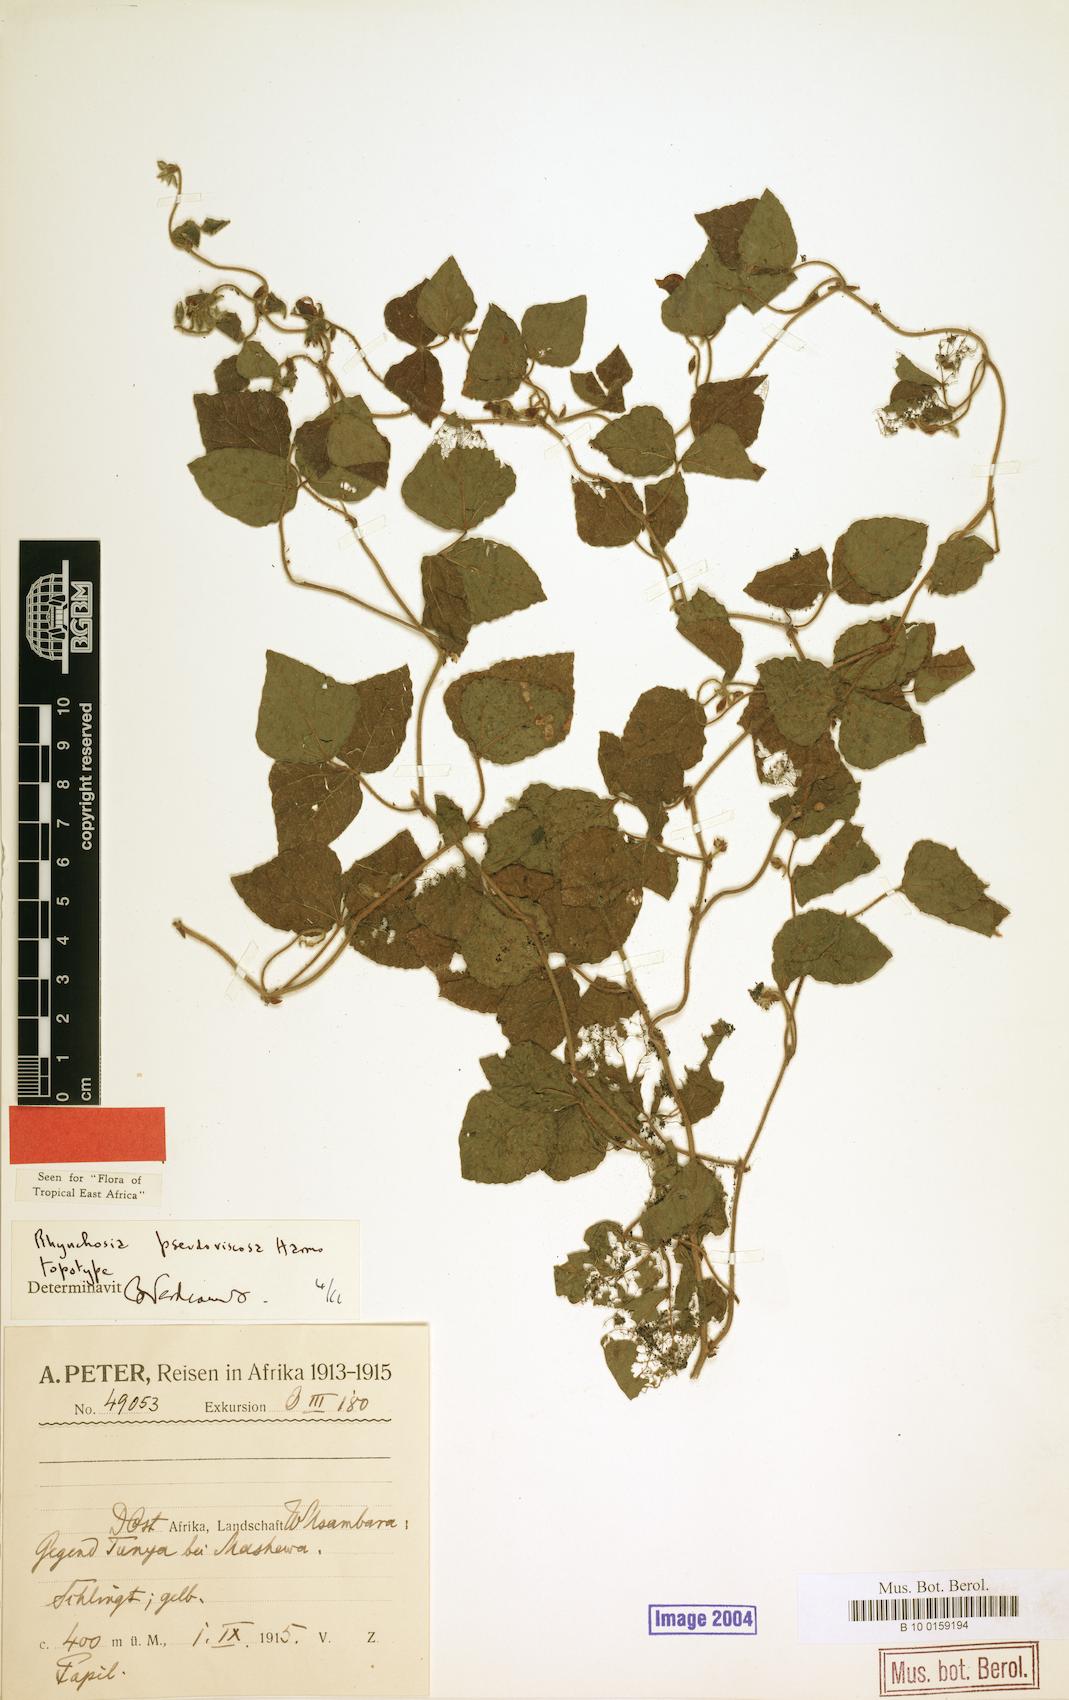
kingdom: Plantae
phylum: Tracheophyta
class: Magnoliopsida
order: Fabales
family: Fabaceae
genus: Rhynchosia
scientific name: Rhynchosia pseudoviscosa
